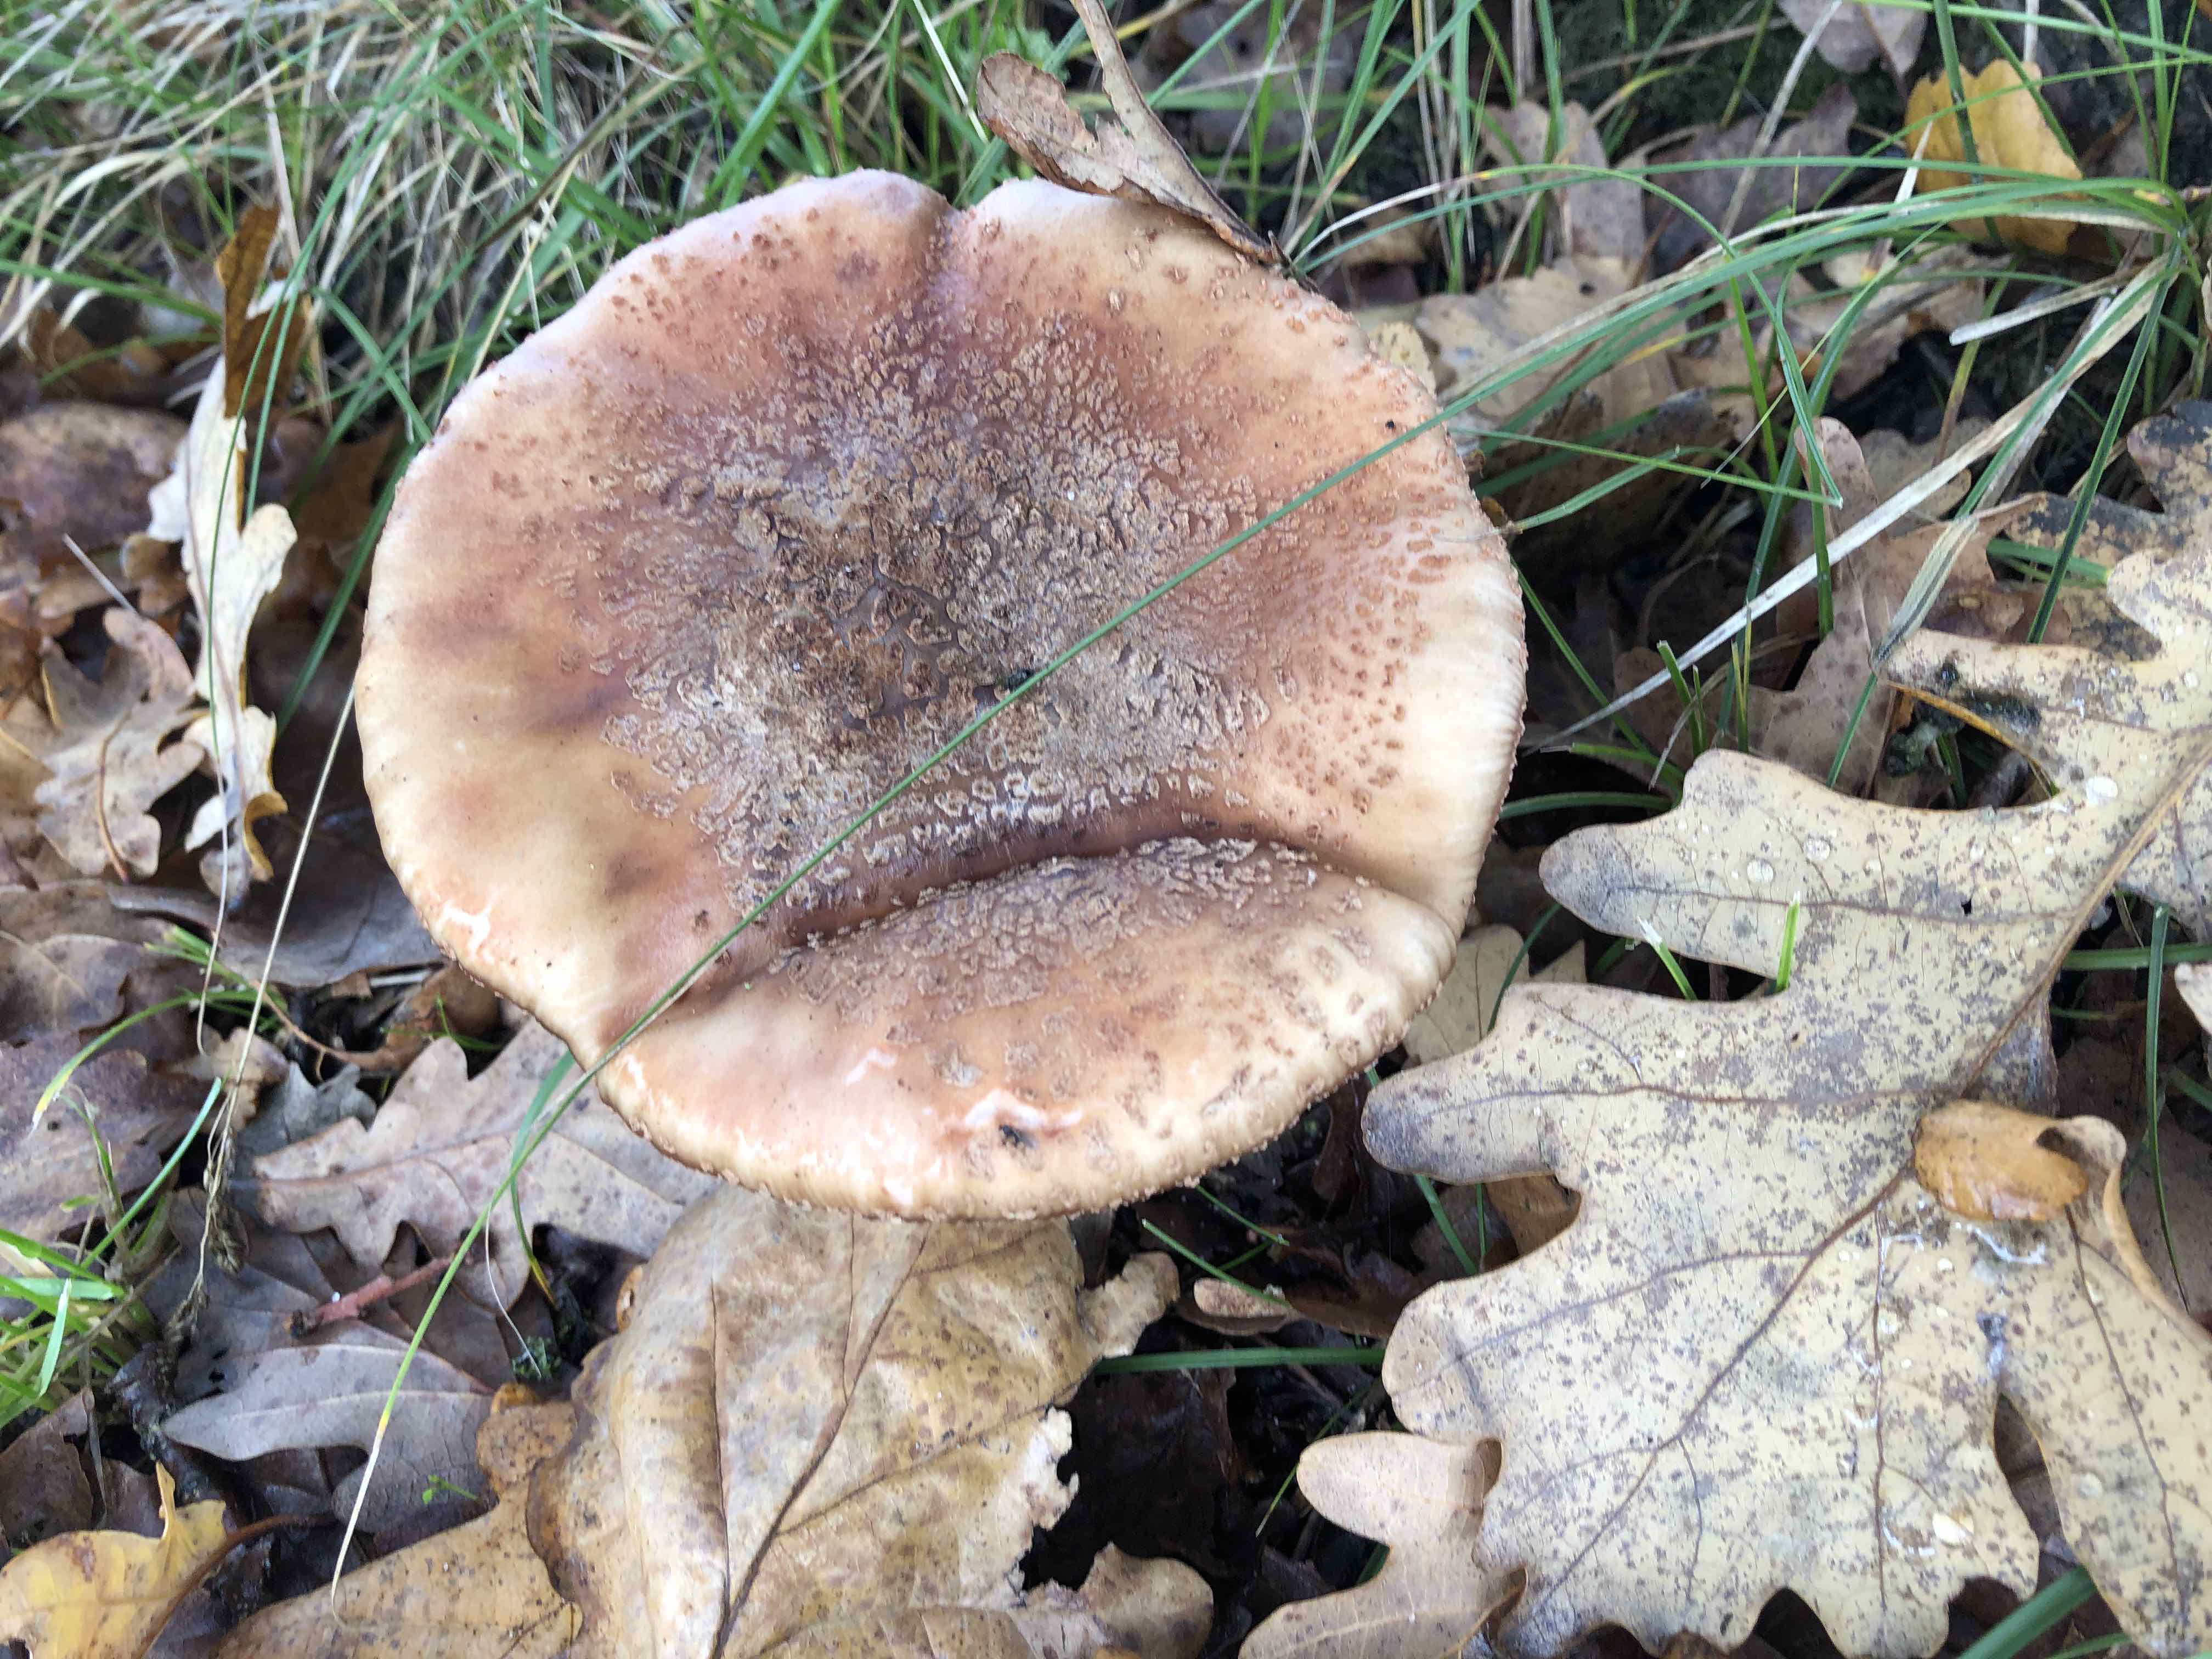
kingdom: Fungi
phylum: Basidiomycota
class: Agaricomycetes
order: Agaricales
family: Amanitaceae
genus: Amanita
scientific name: Amanita rubescens
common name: rødmende fluesvamp
